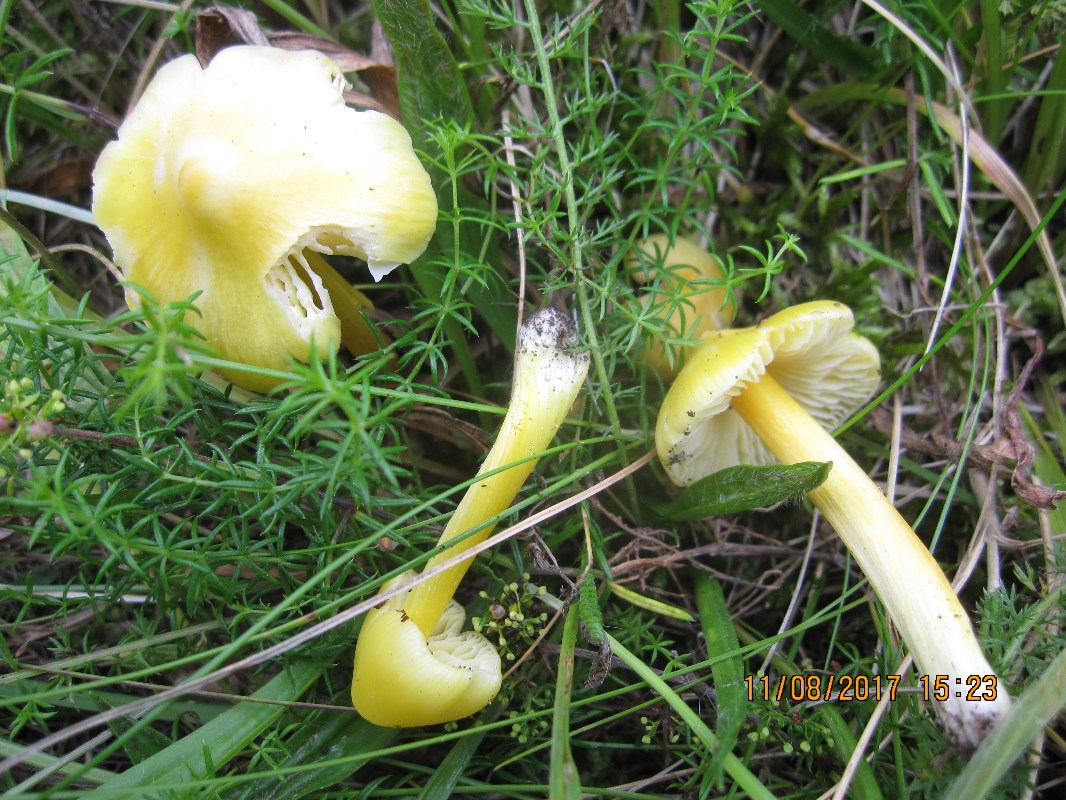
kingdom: Fungi
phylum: Basidiomycota
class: Agaricomycetes
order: Agaricales
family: Hygrophoraceae
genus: Hygrocybe
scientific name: Hygrocybe acutoconica
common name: spidspuklet vokshat
